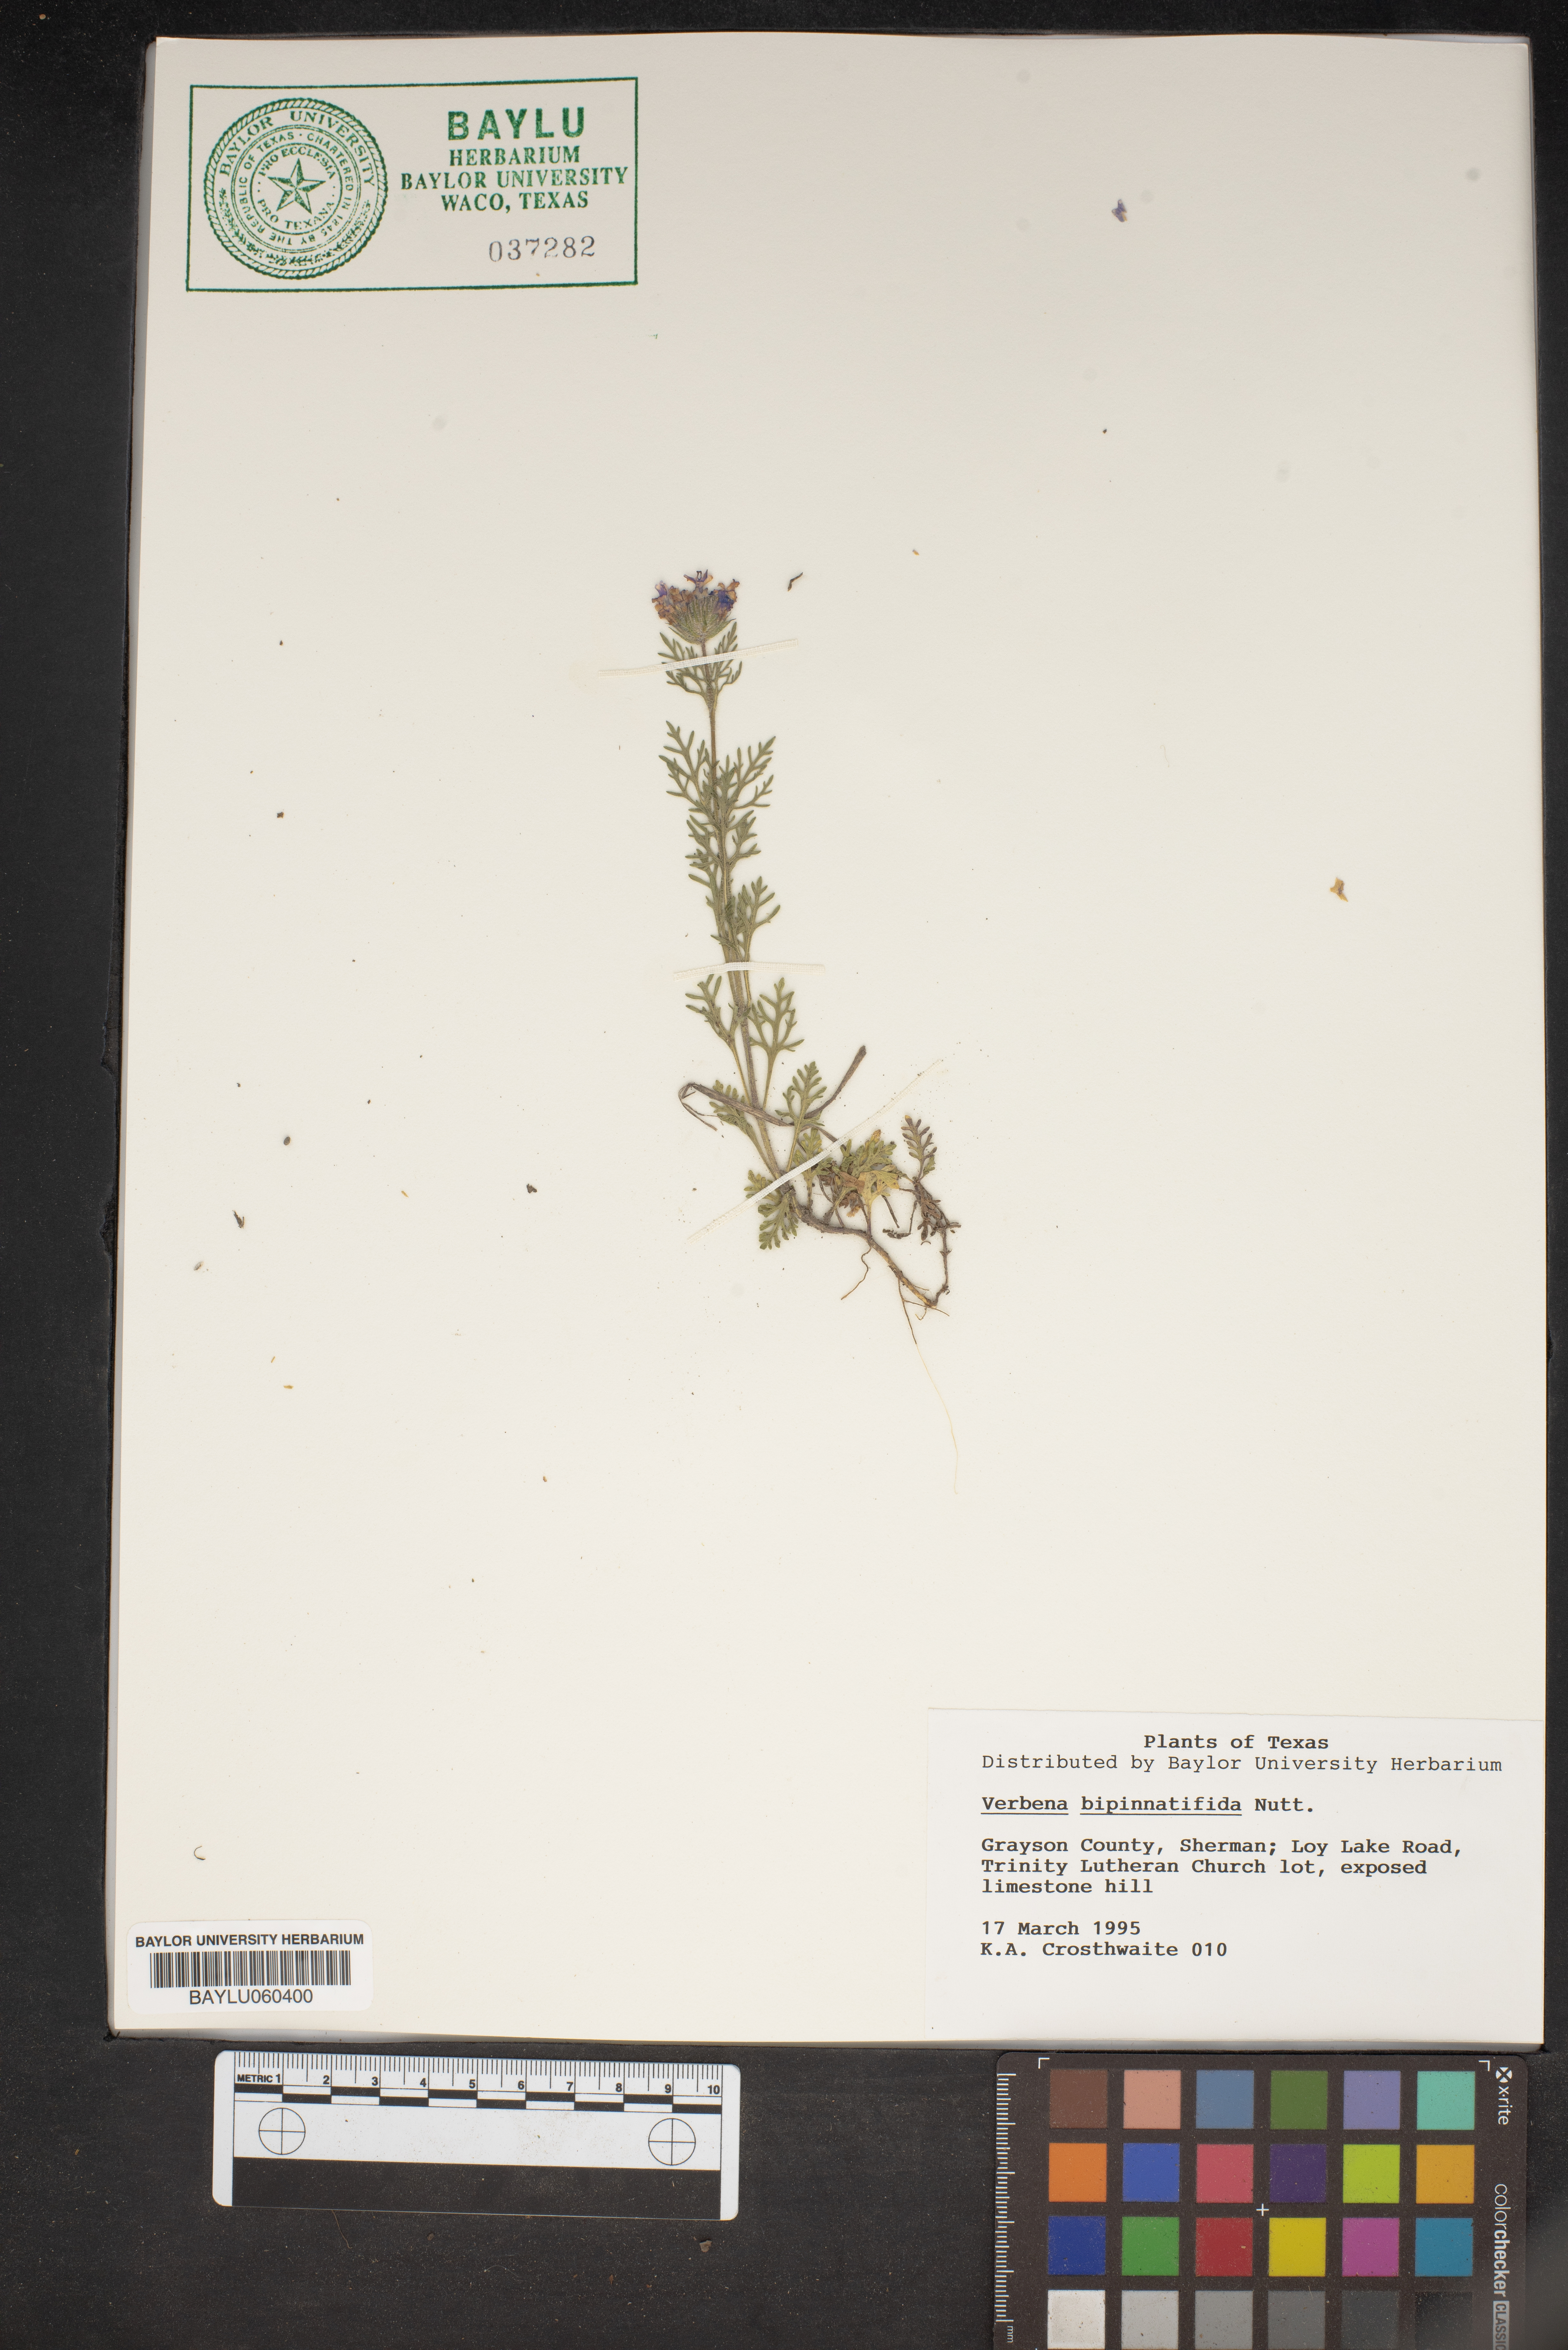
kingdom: Plantae
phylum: Tracheophyta
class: Magnoliopsida
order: Lamiales
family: Verbenaceae
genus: Verbena
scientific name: Verbena bipinnatifida
